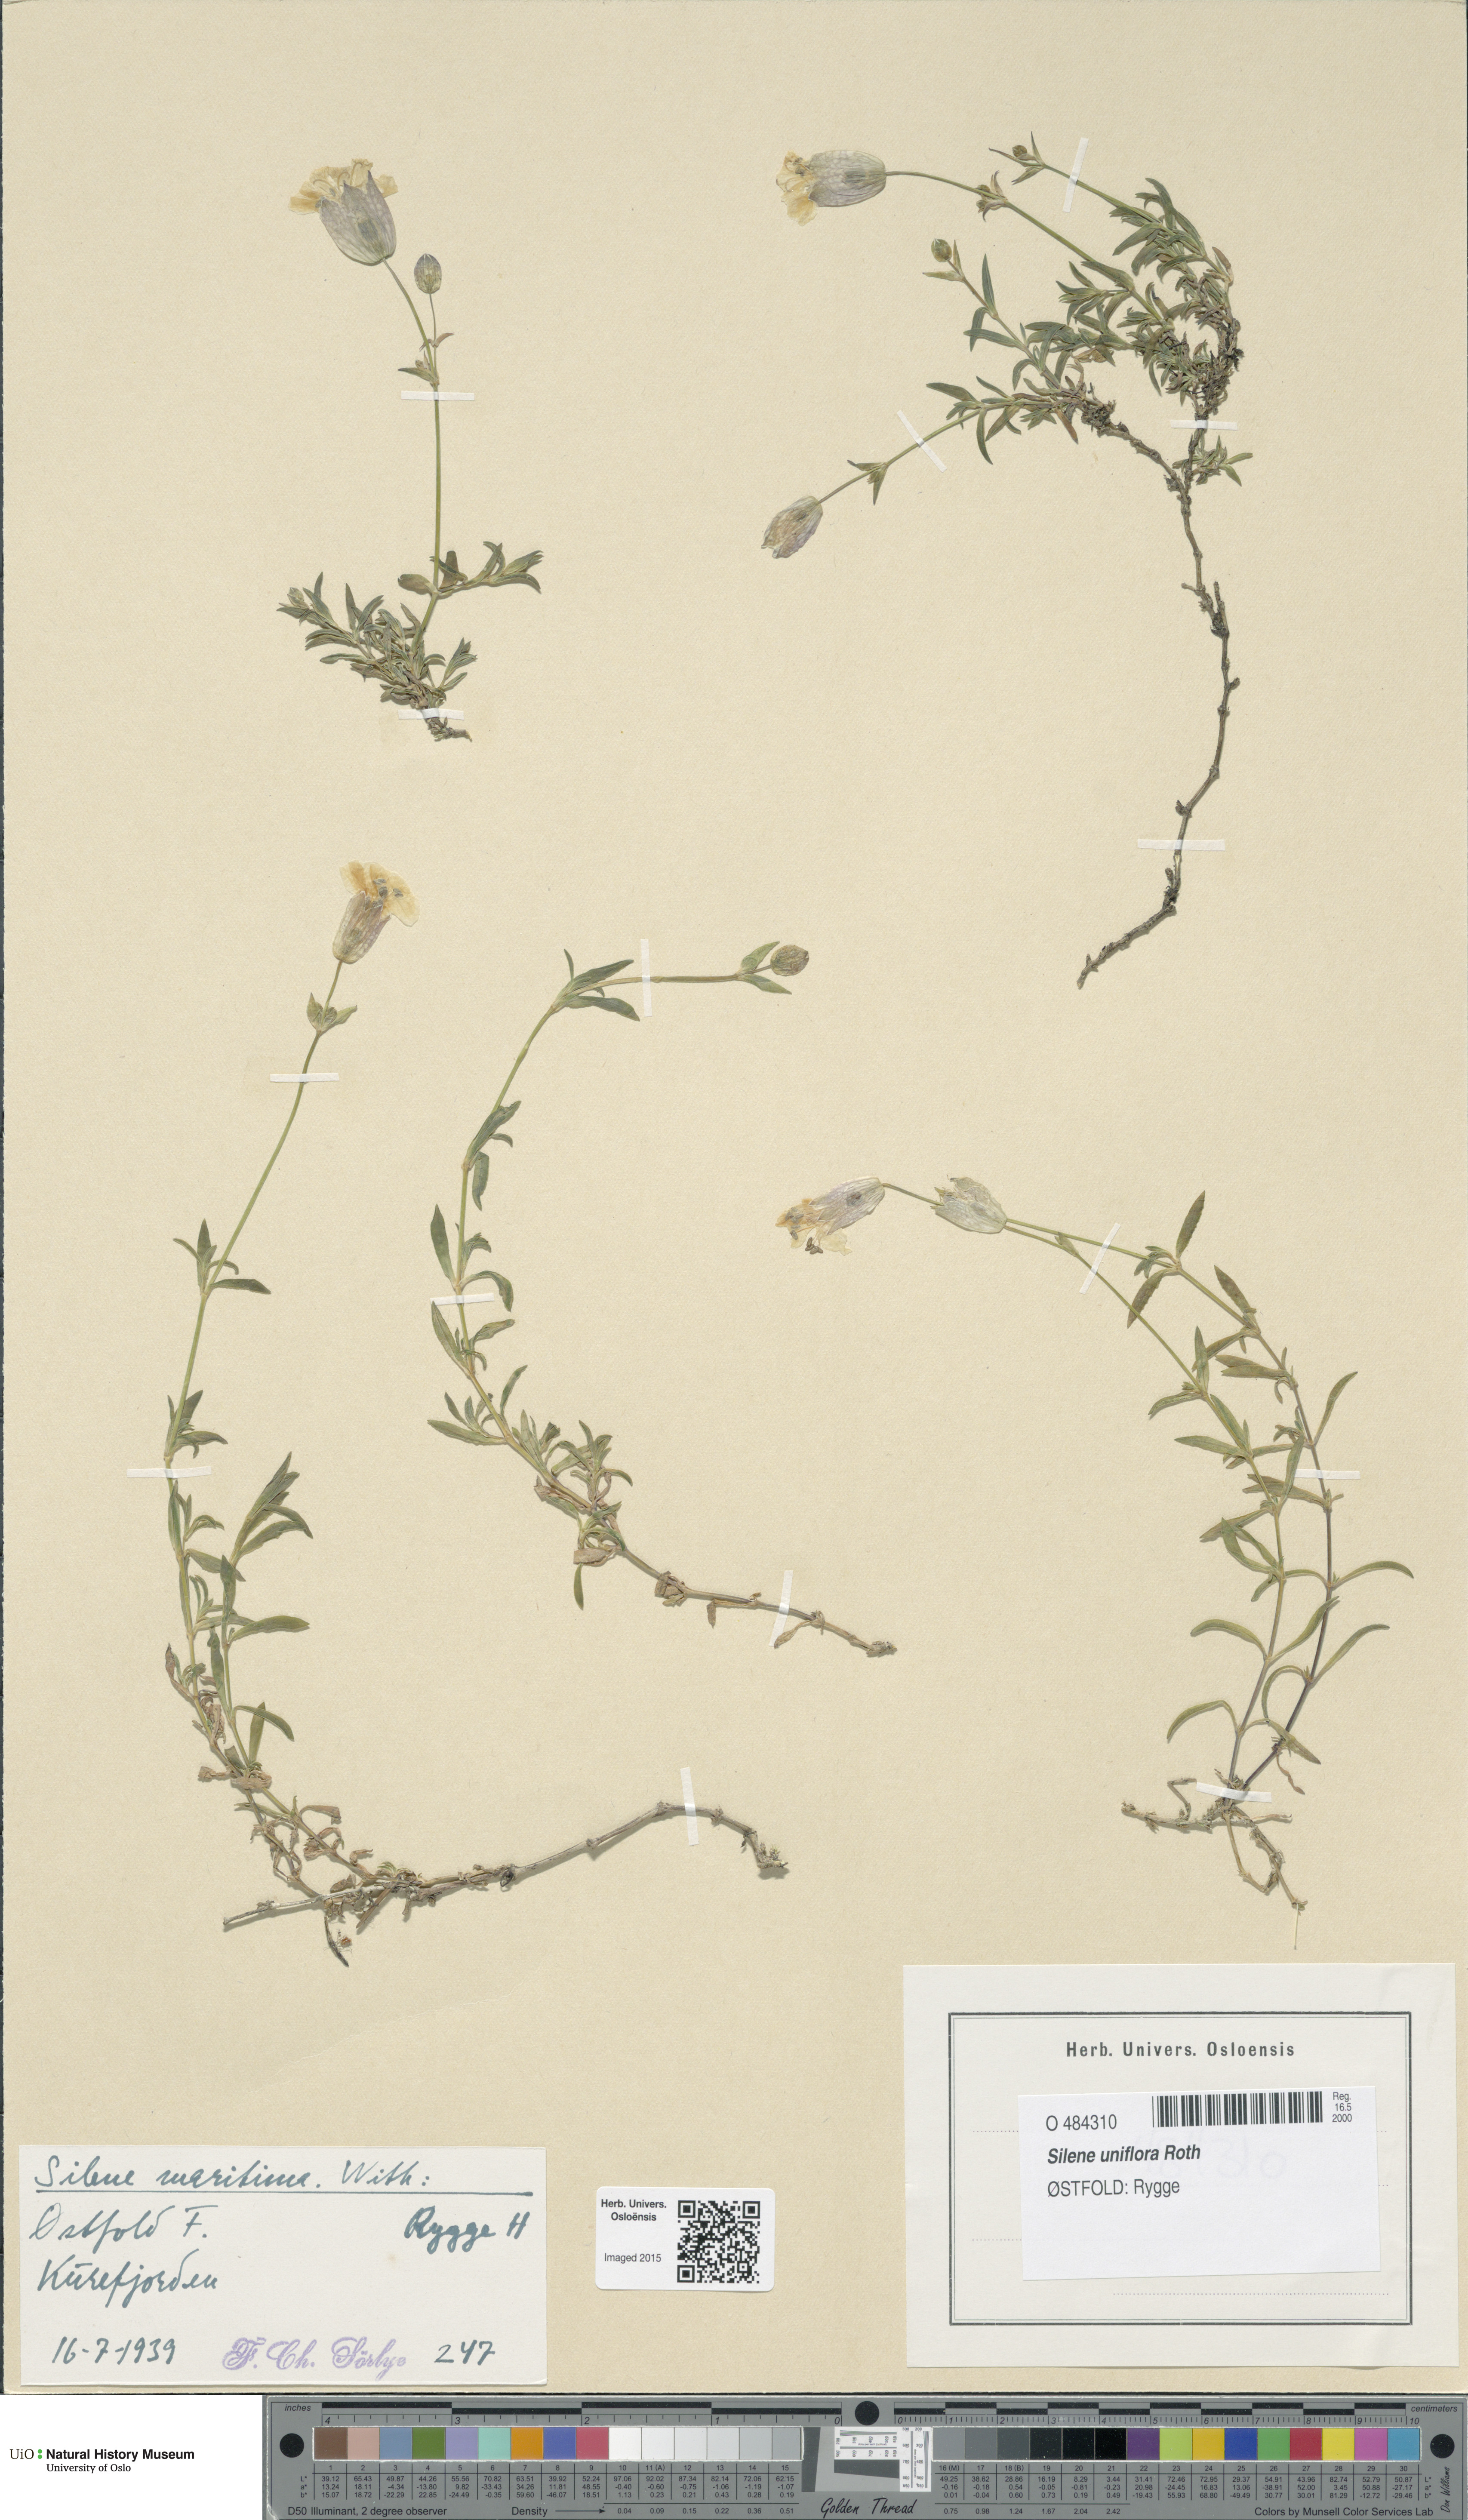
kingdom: Plantae
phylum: Tracheophyta
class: Magnoliopsida
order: Caryophyllales
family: Caryophyllaceae
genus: Silene
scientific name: Silene uniflora
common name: Sea campion
